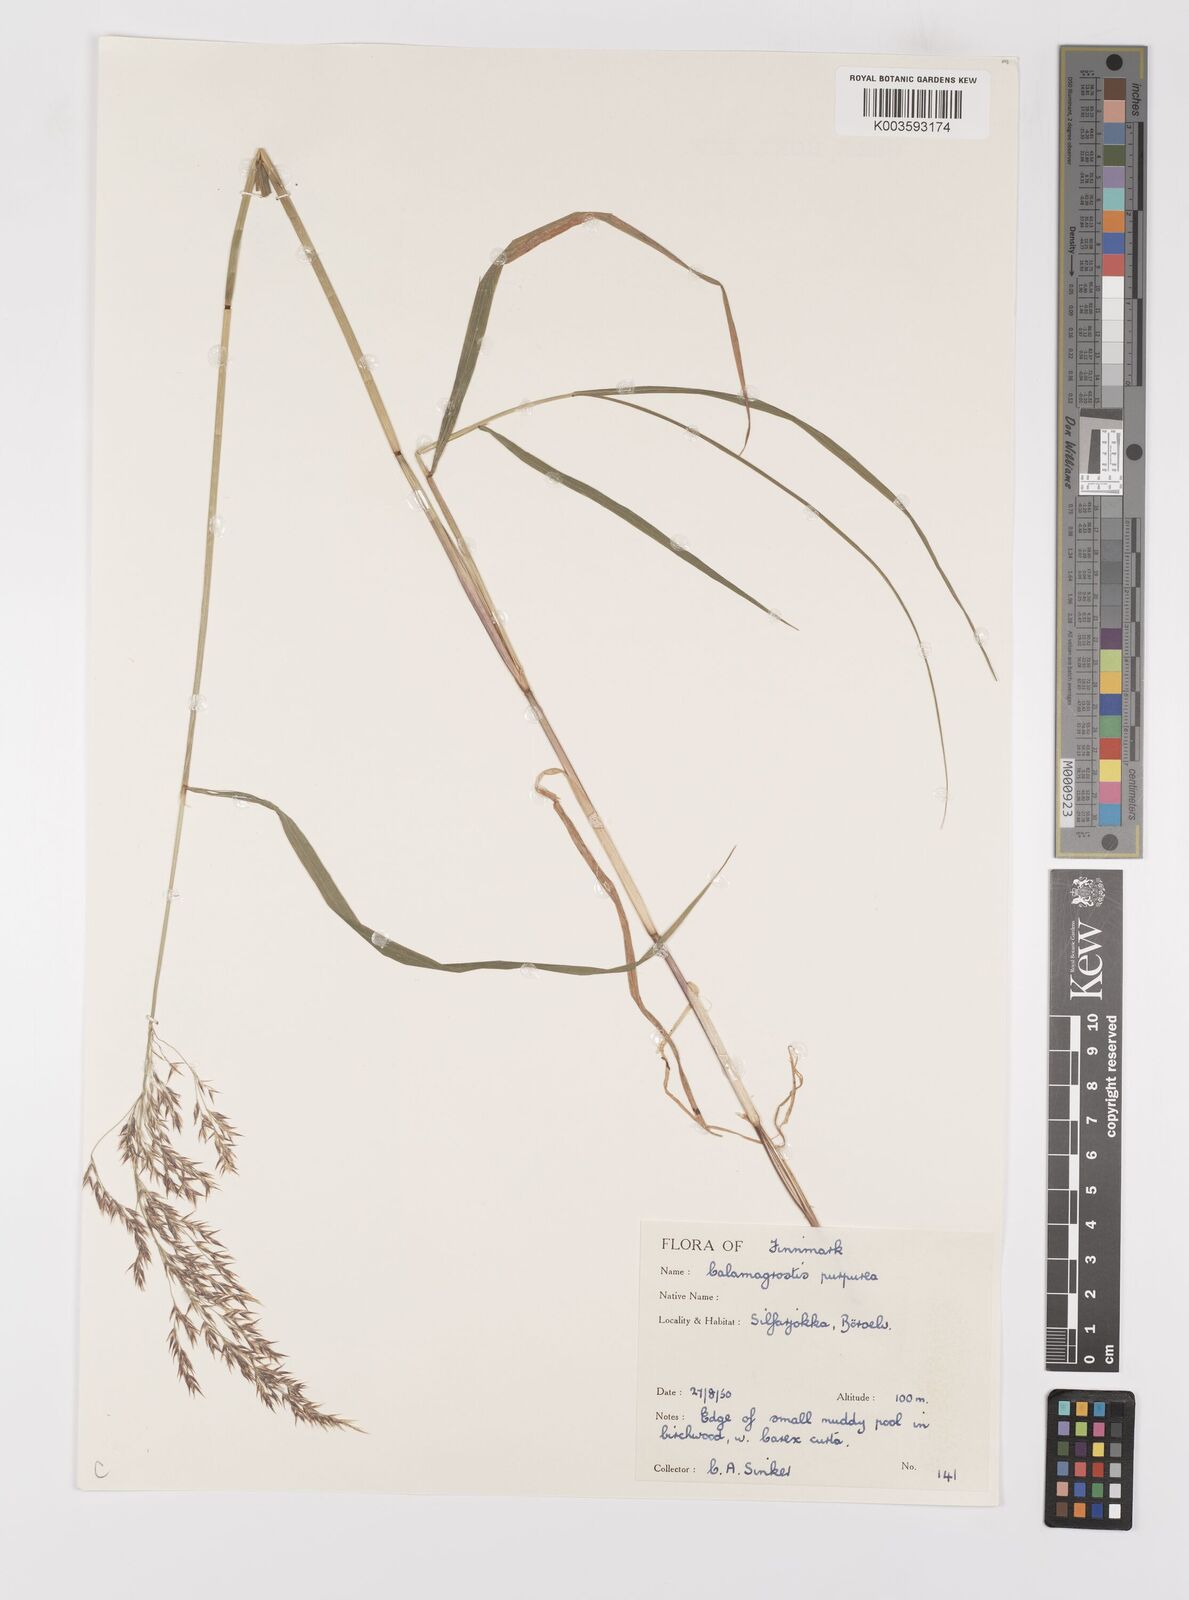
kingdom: Plantae
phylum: Tracheophyta
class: Liliopsida
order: Poales
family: Poaceae
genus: Calamagrostis
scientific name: Calamagrostis
